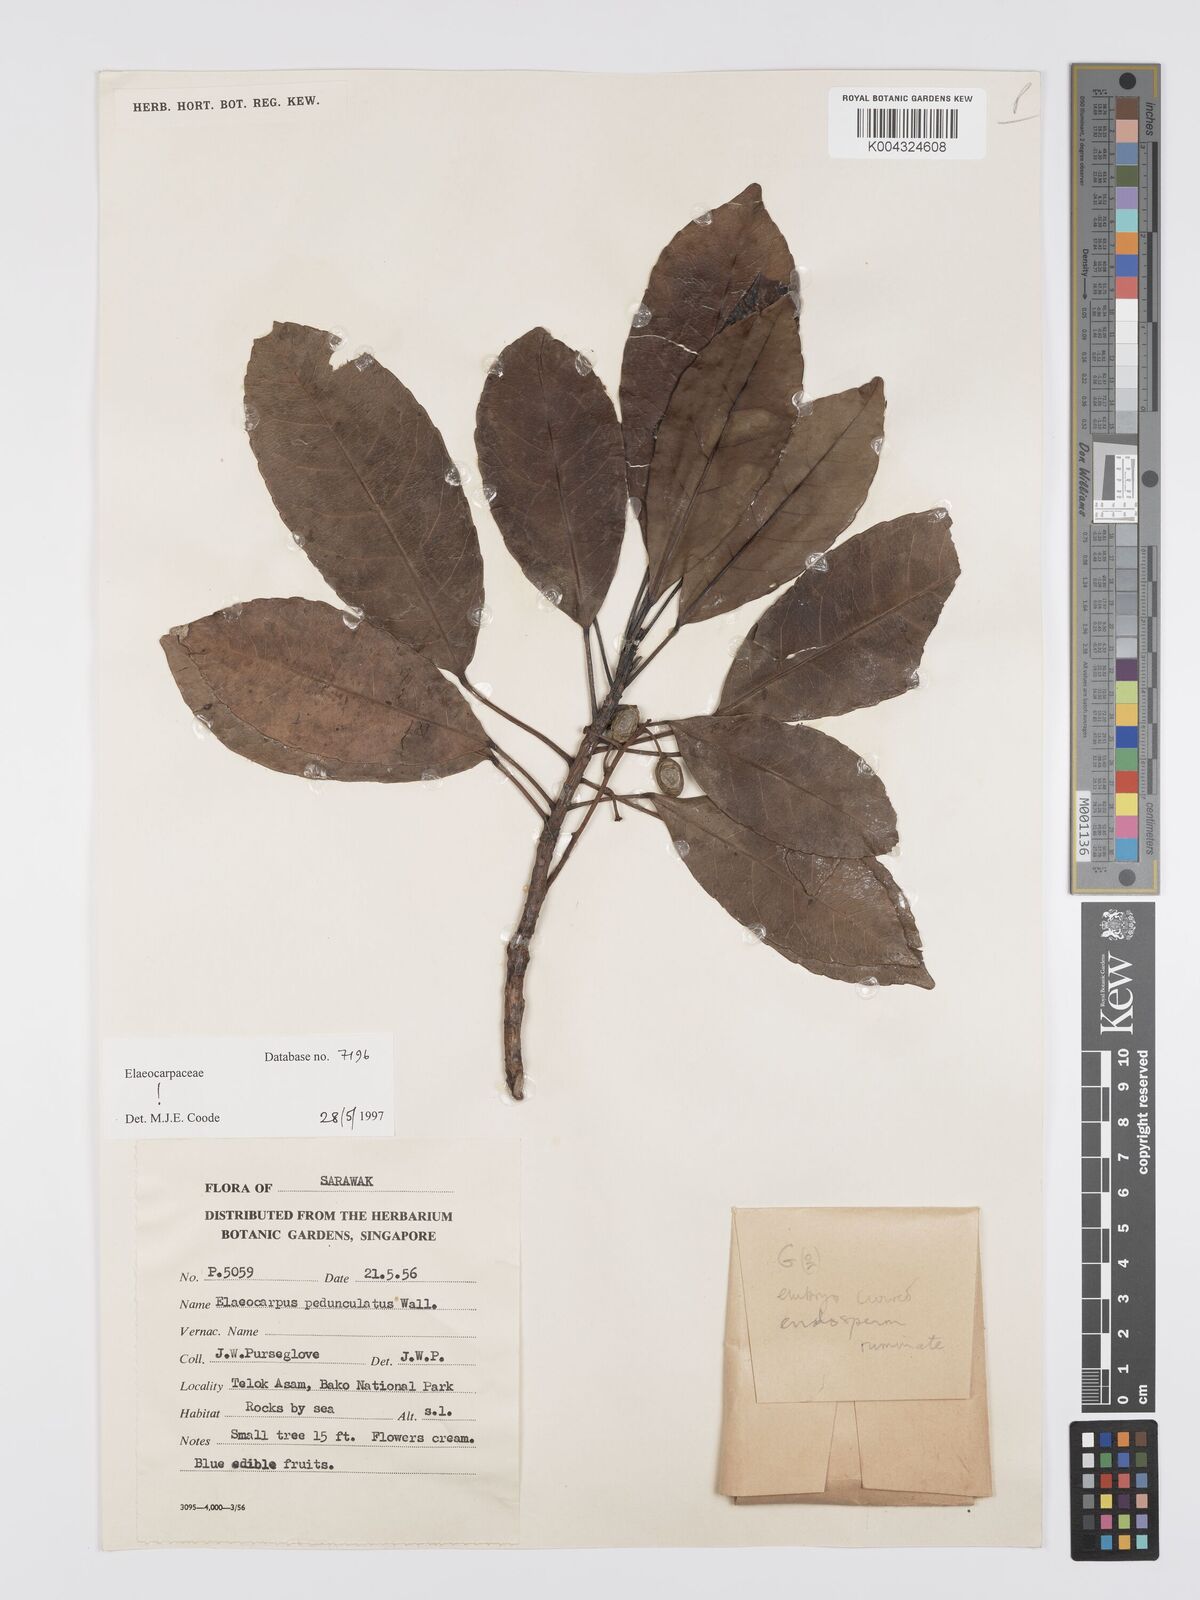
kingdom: Plantae
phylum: Tracheophyta
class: Magnoliopsida
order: Oxalidales
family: Elaeocarpaceae
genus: Elaeocarpus
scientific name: Elaeocarpus pedunculatus
